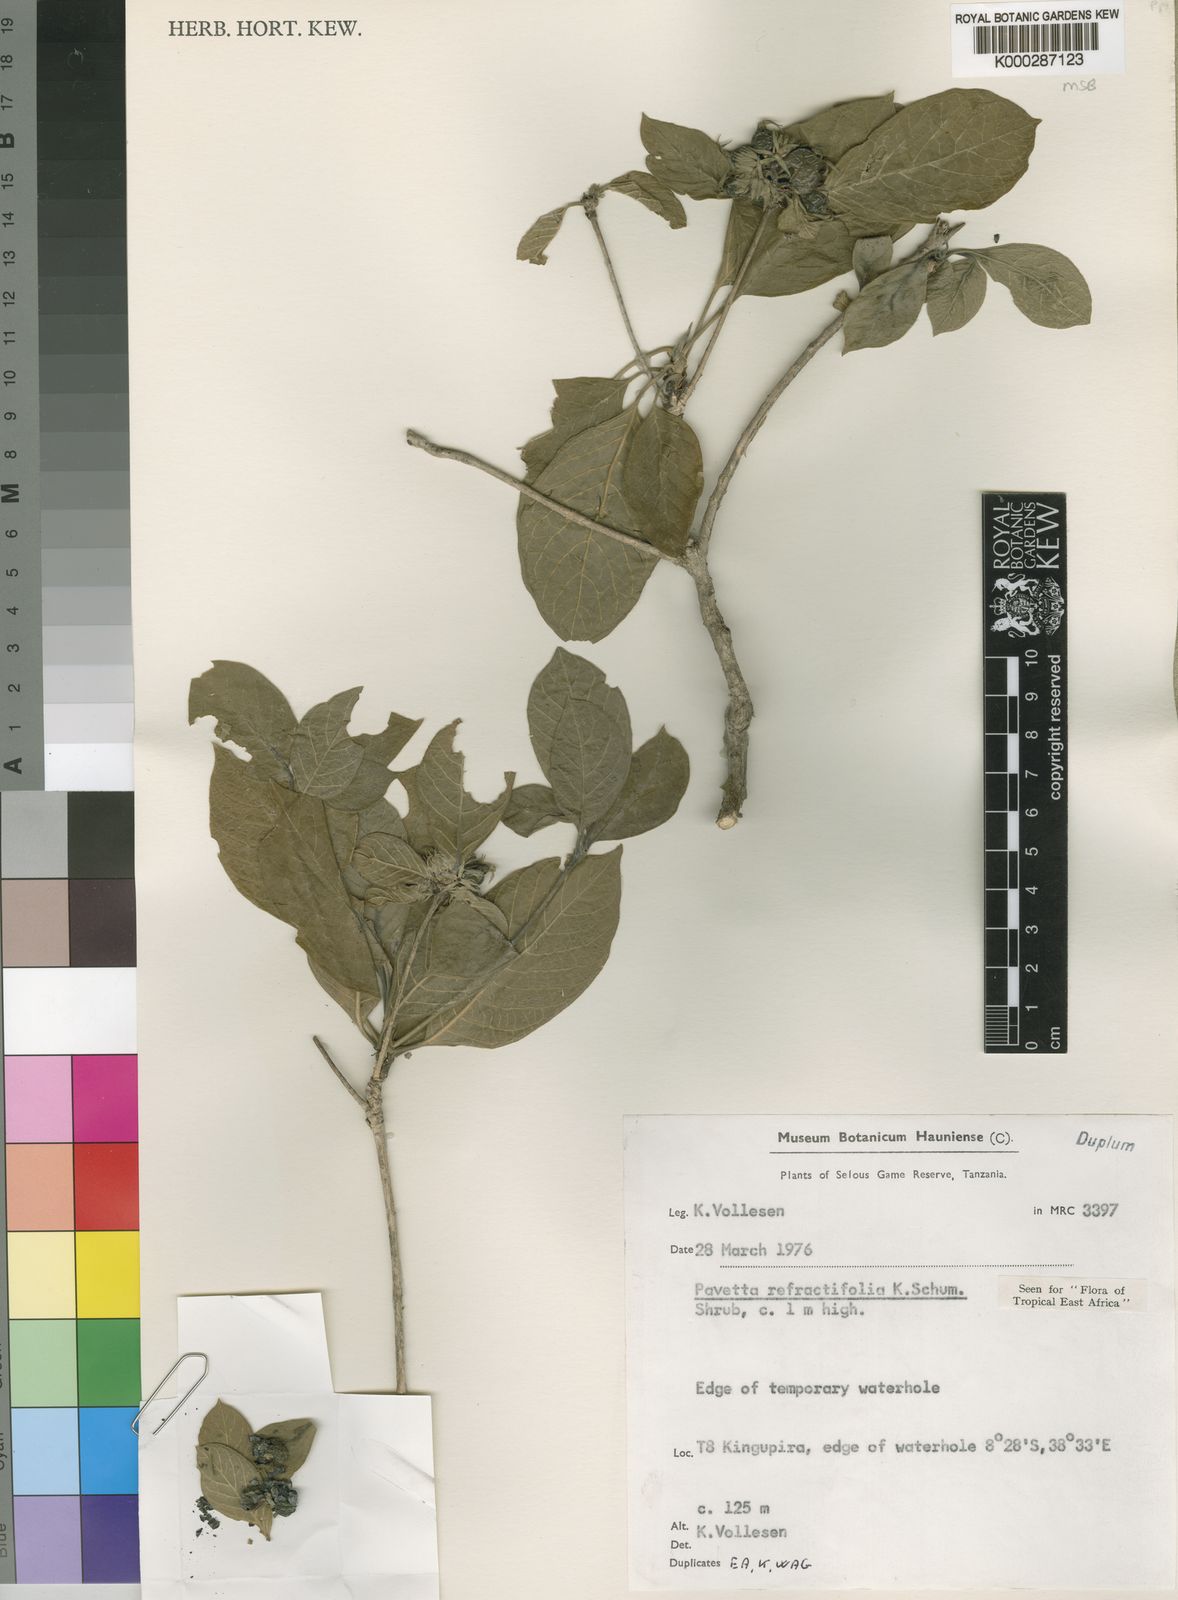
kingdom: Plantae
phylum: Tracheophyta
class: Magnoliopsida
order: Gentianales
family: Rubiaceae
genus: Pavetta
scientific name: Pavetta refractifolia
